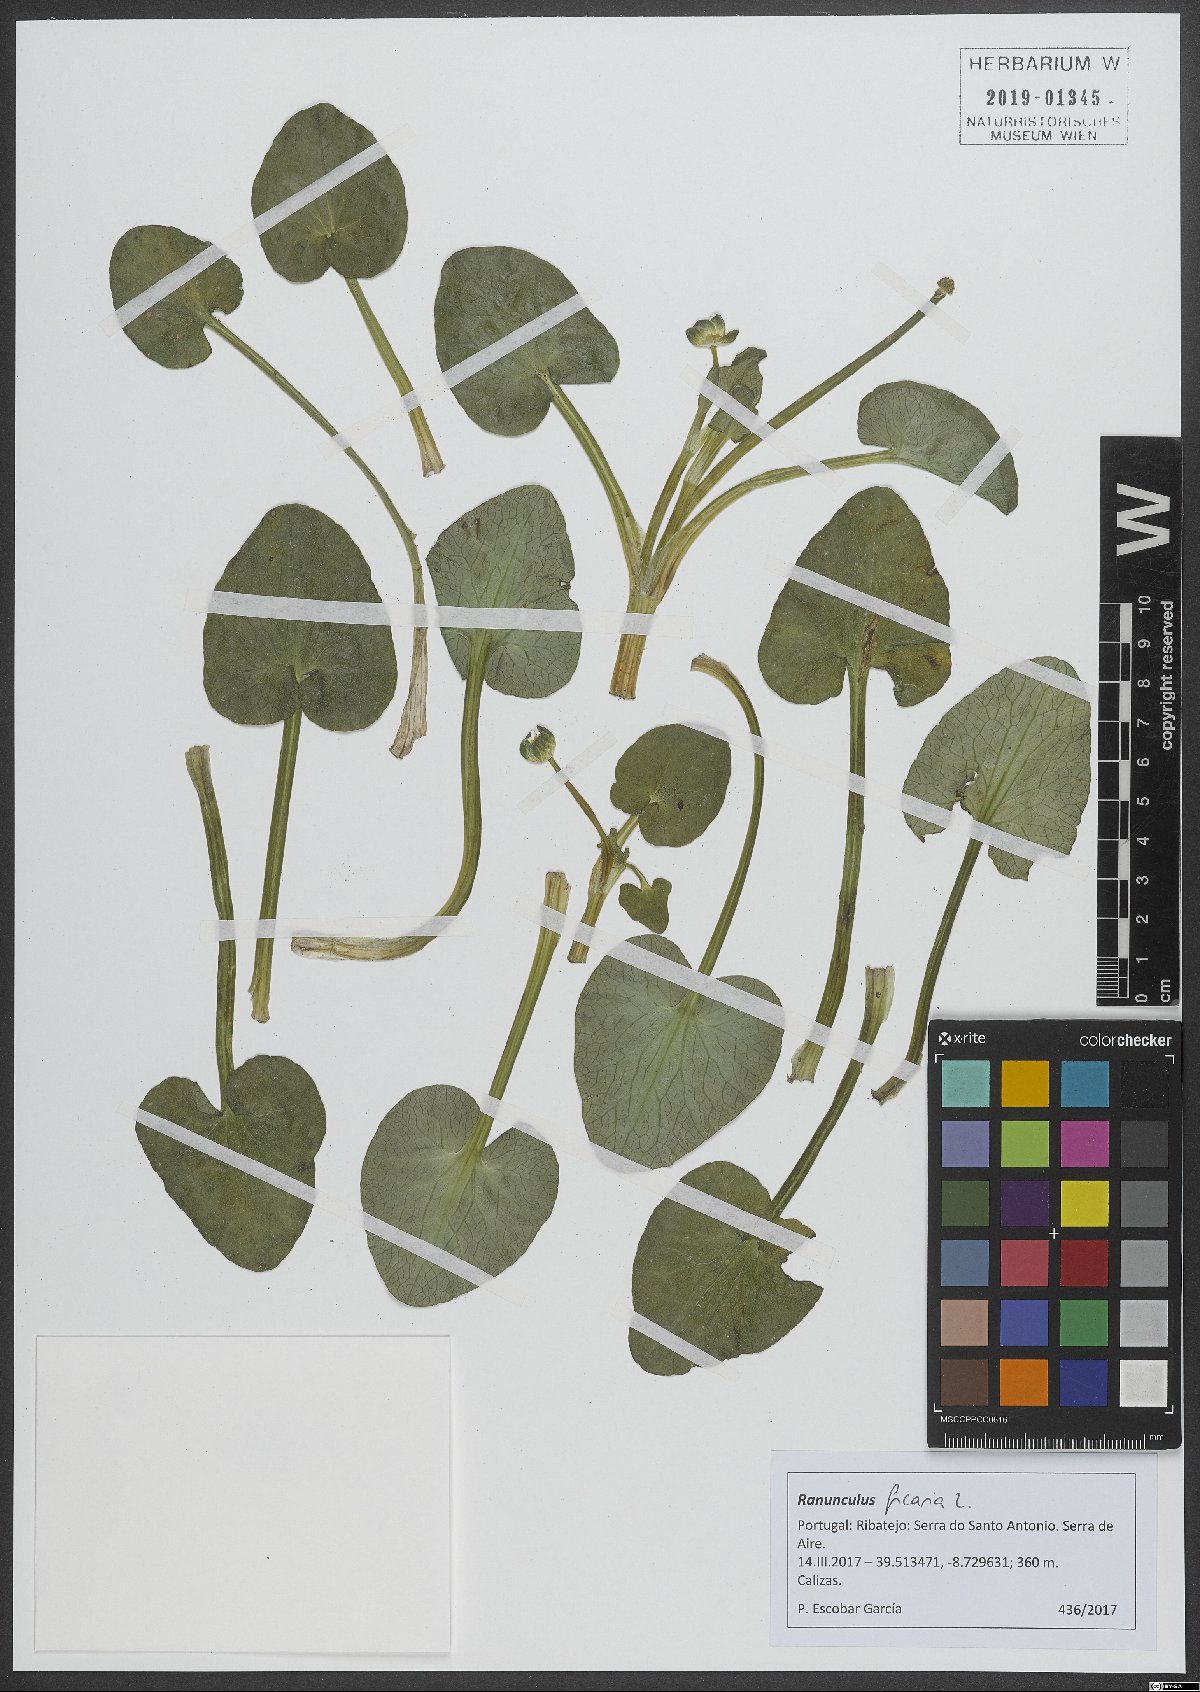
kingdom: Plantae
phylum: Tracheophyta
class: Magnoliopsida
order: Ranunculales
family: Ranunculaceae
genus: Ficaria
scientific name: Ficaria verna
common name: Lesser celandine
